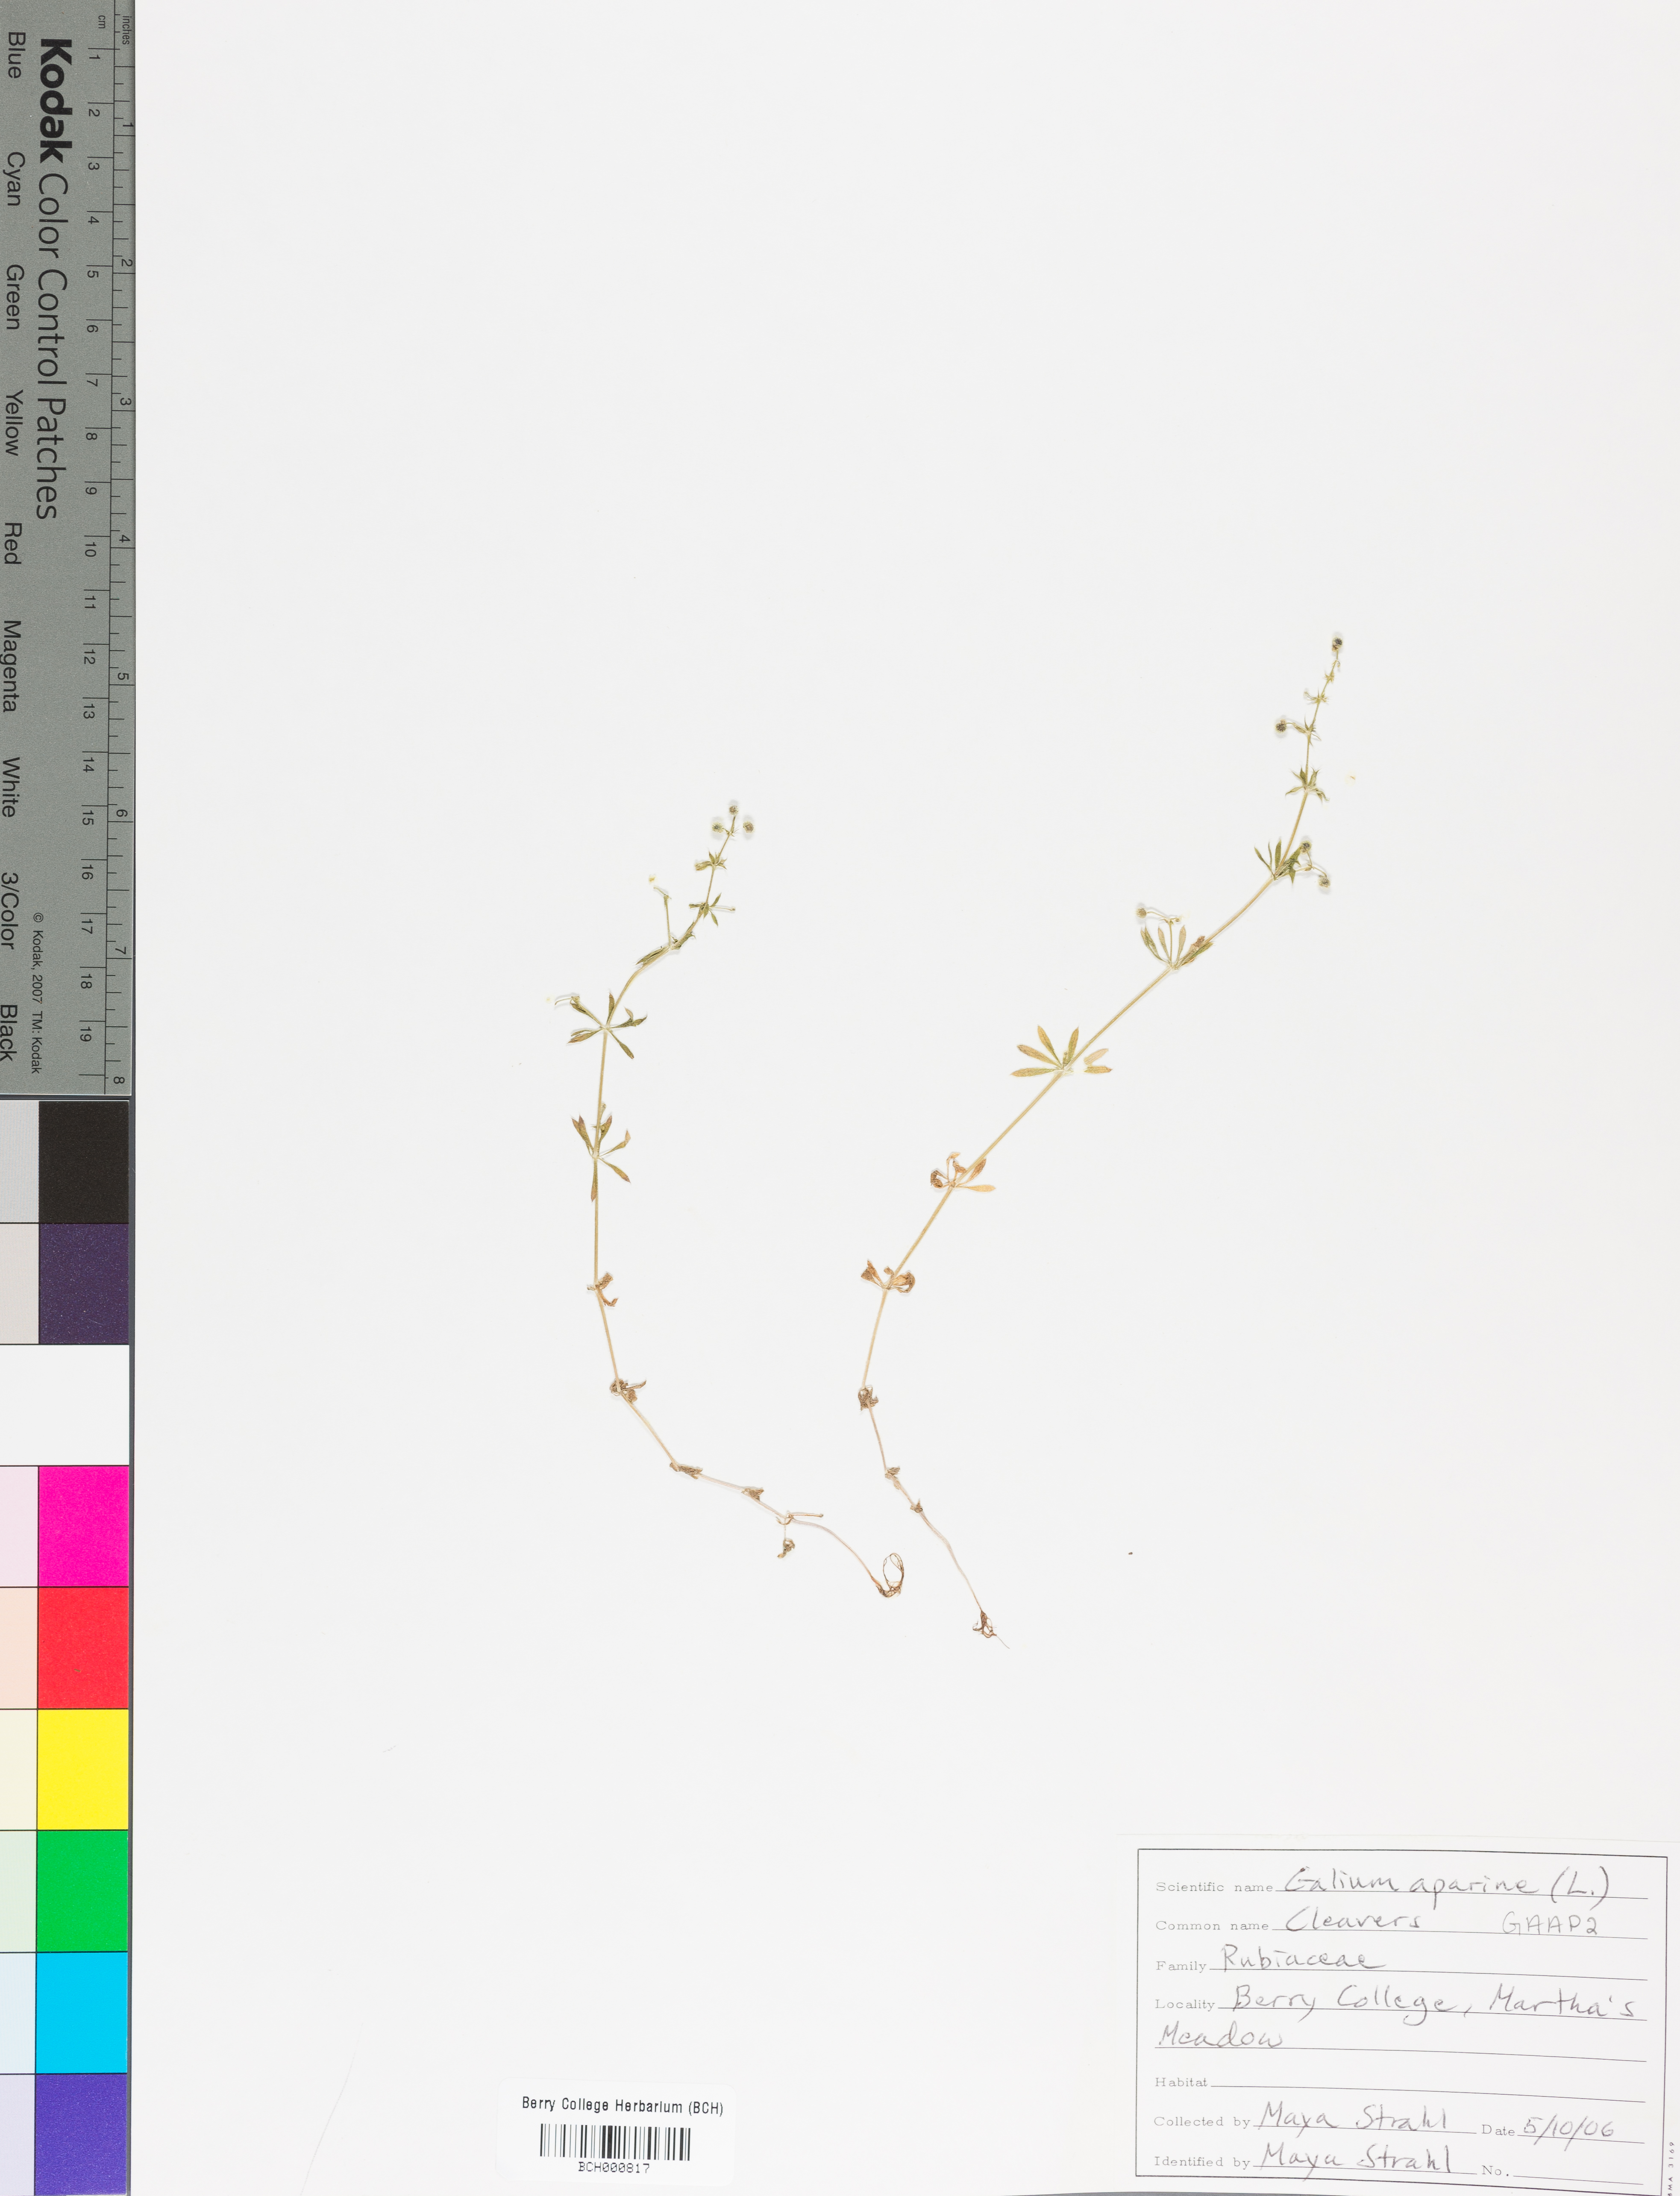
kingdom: Plantae
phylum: Tracheophyta
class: Magnoliopsida
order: Gentianales
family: Rubiaceae
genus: Galium
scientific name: Galium aparine
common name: Cleavers
